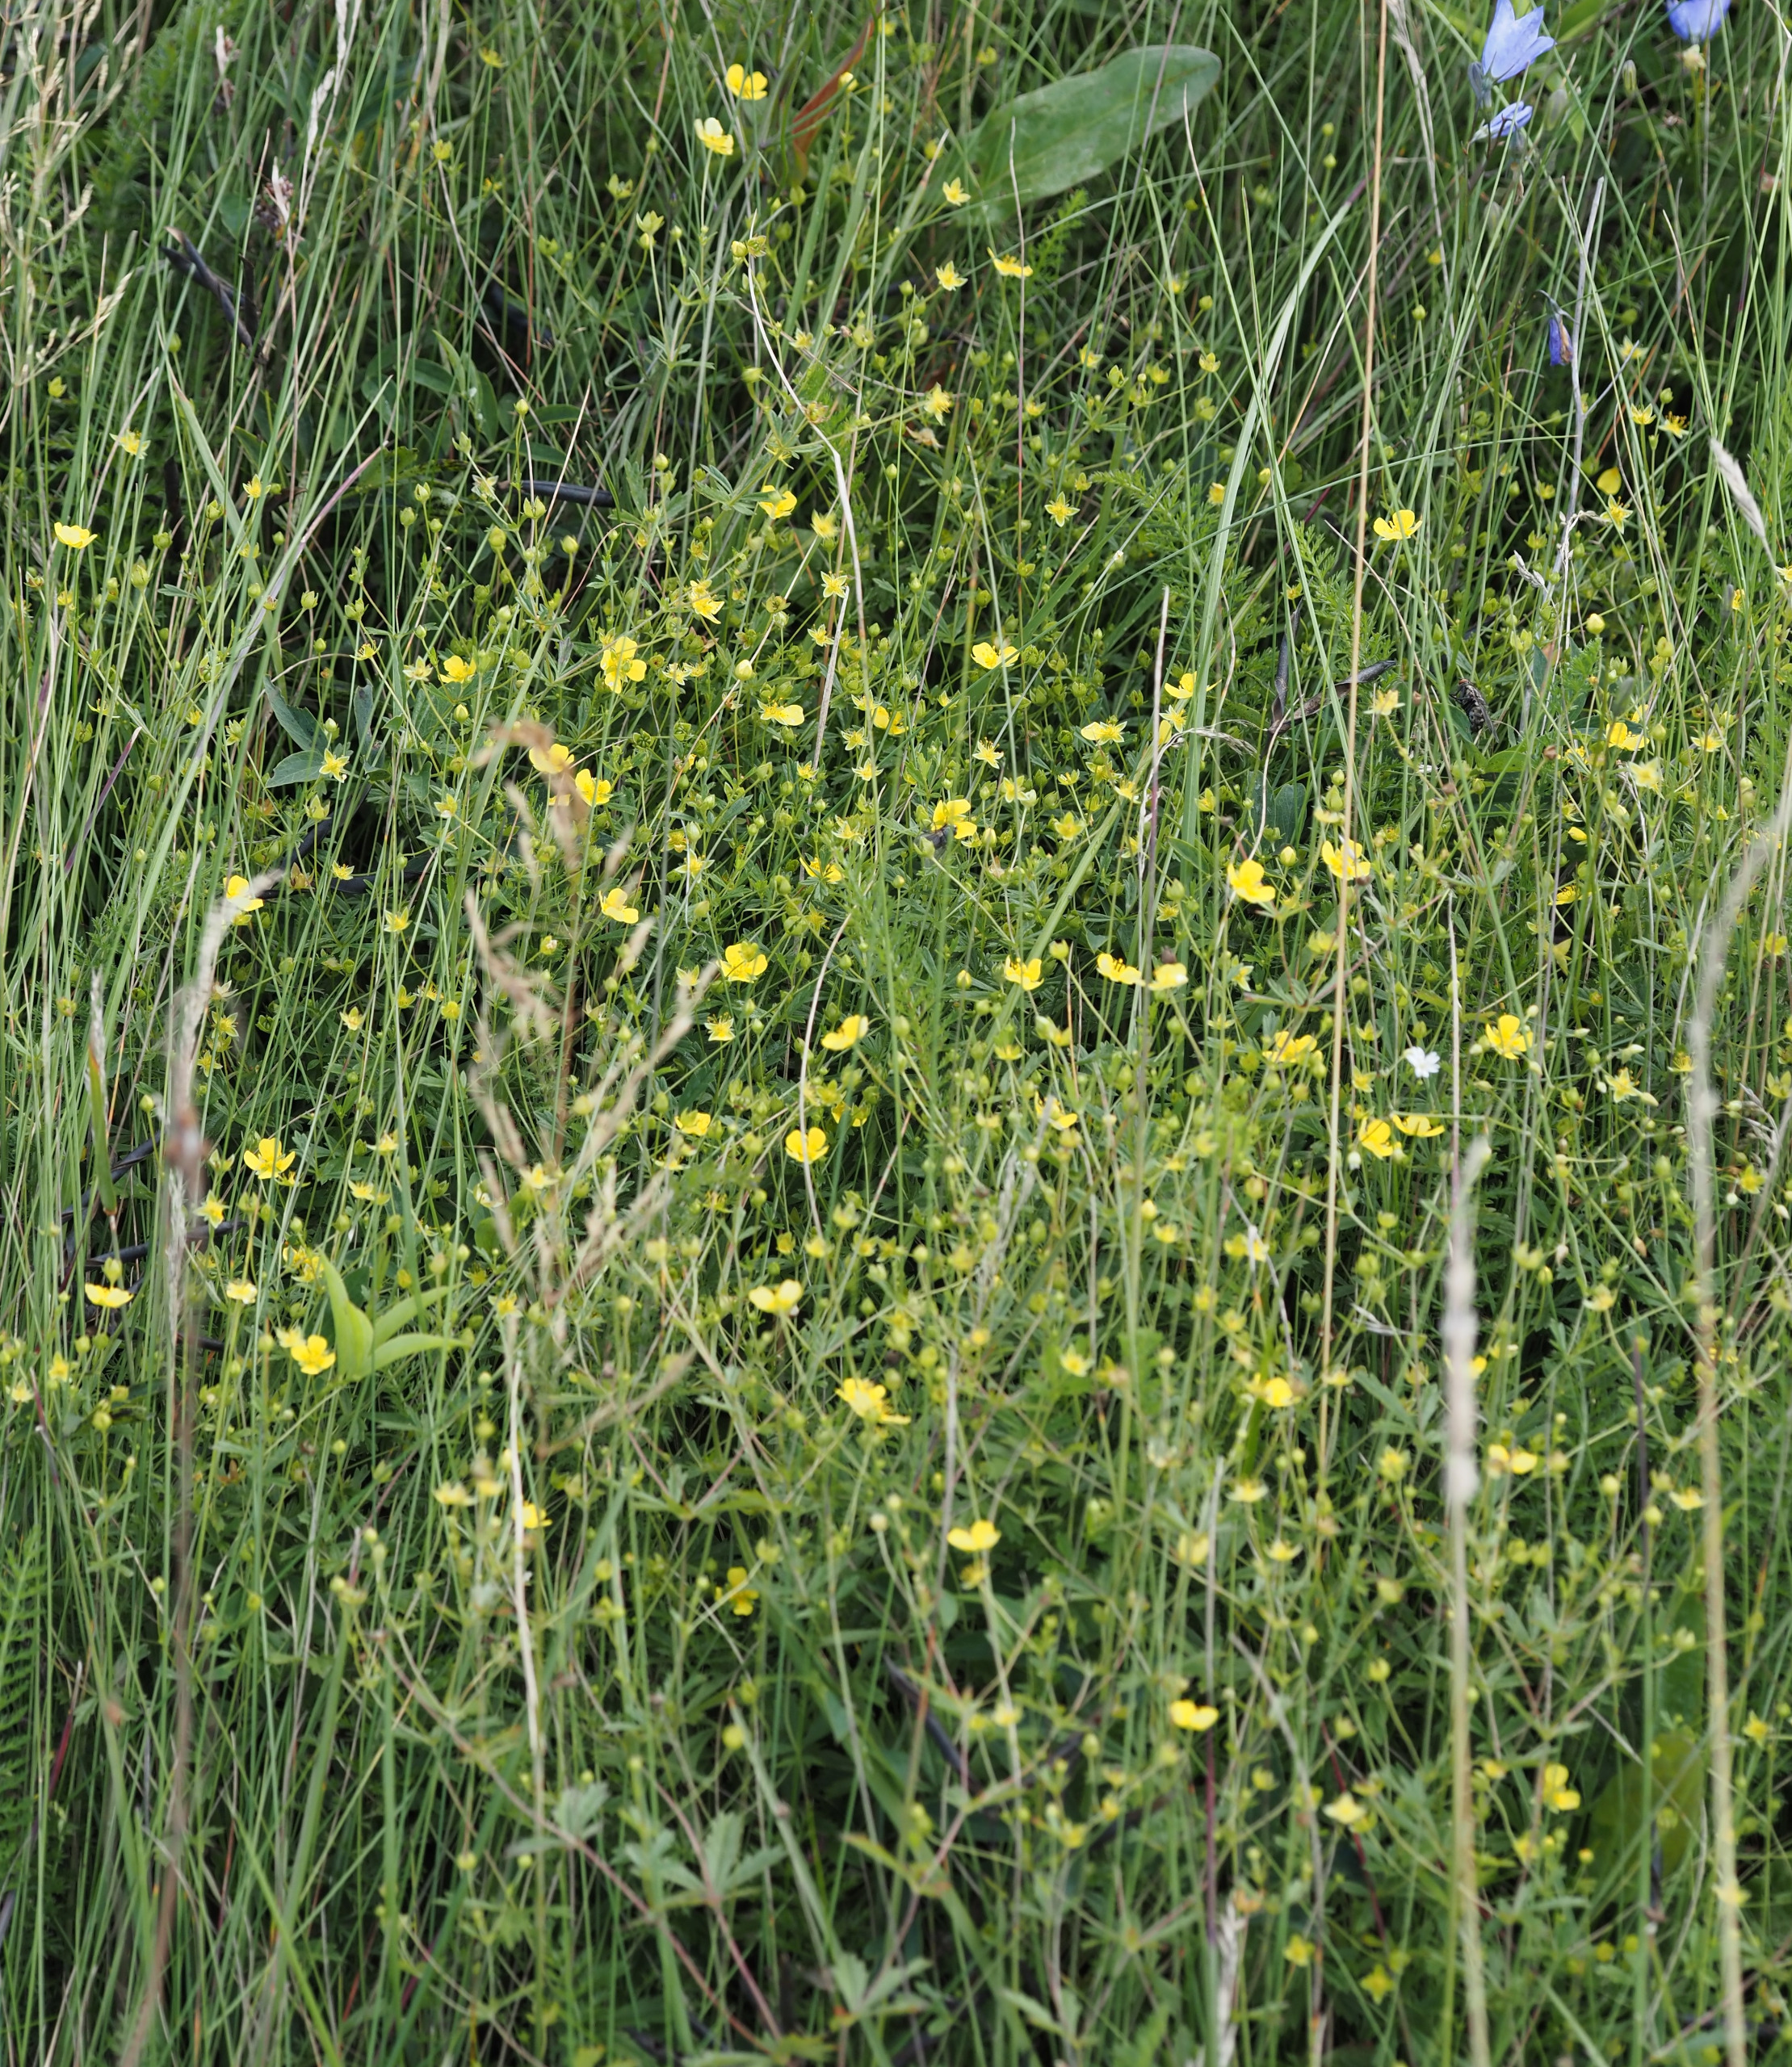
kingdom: Plantae
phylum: Tracheophyta
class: Magnoliopsida
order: Rosales
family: Rosaceae
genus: Potentilla
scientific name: Potentilla erecta
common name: Tormentil
